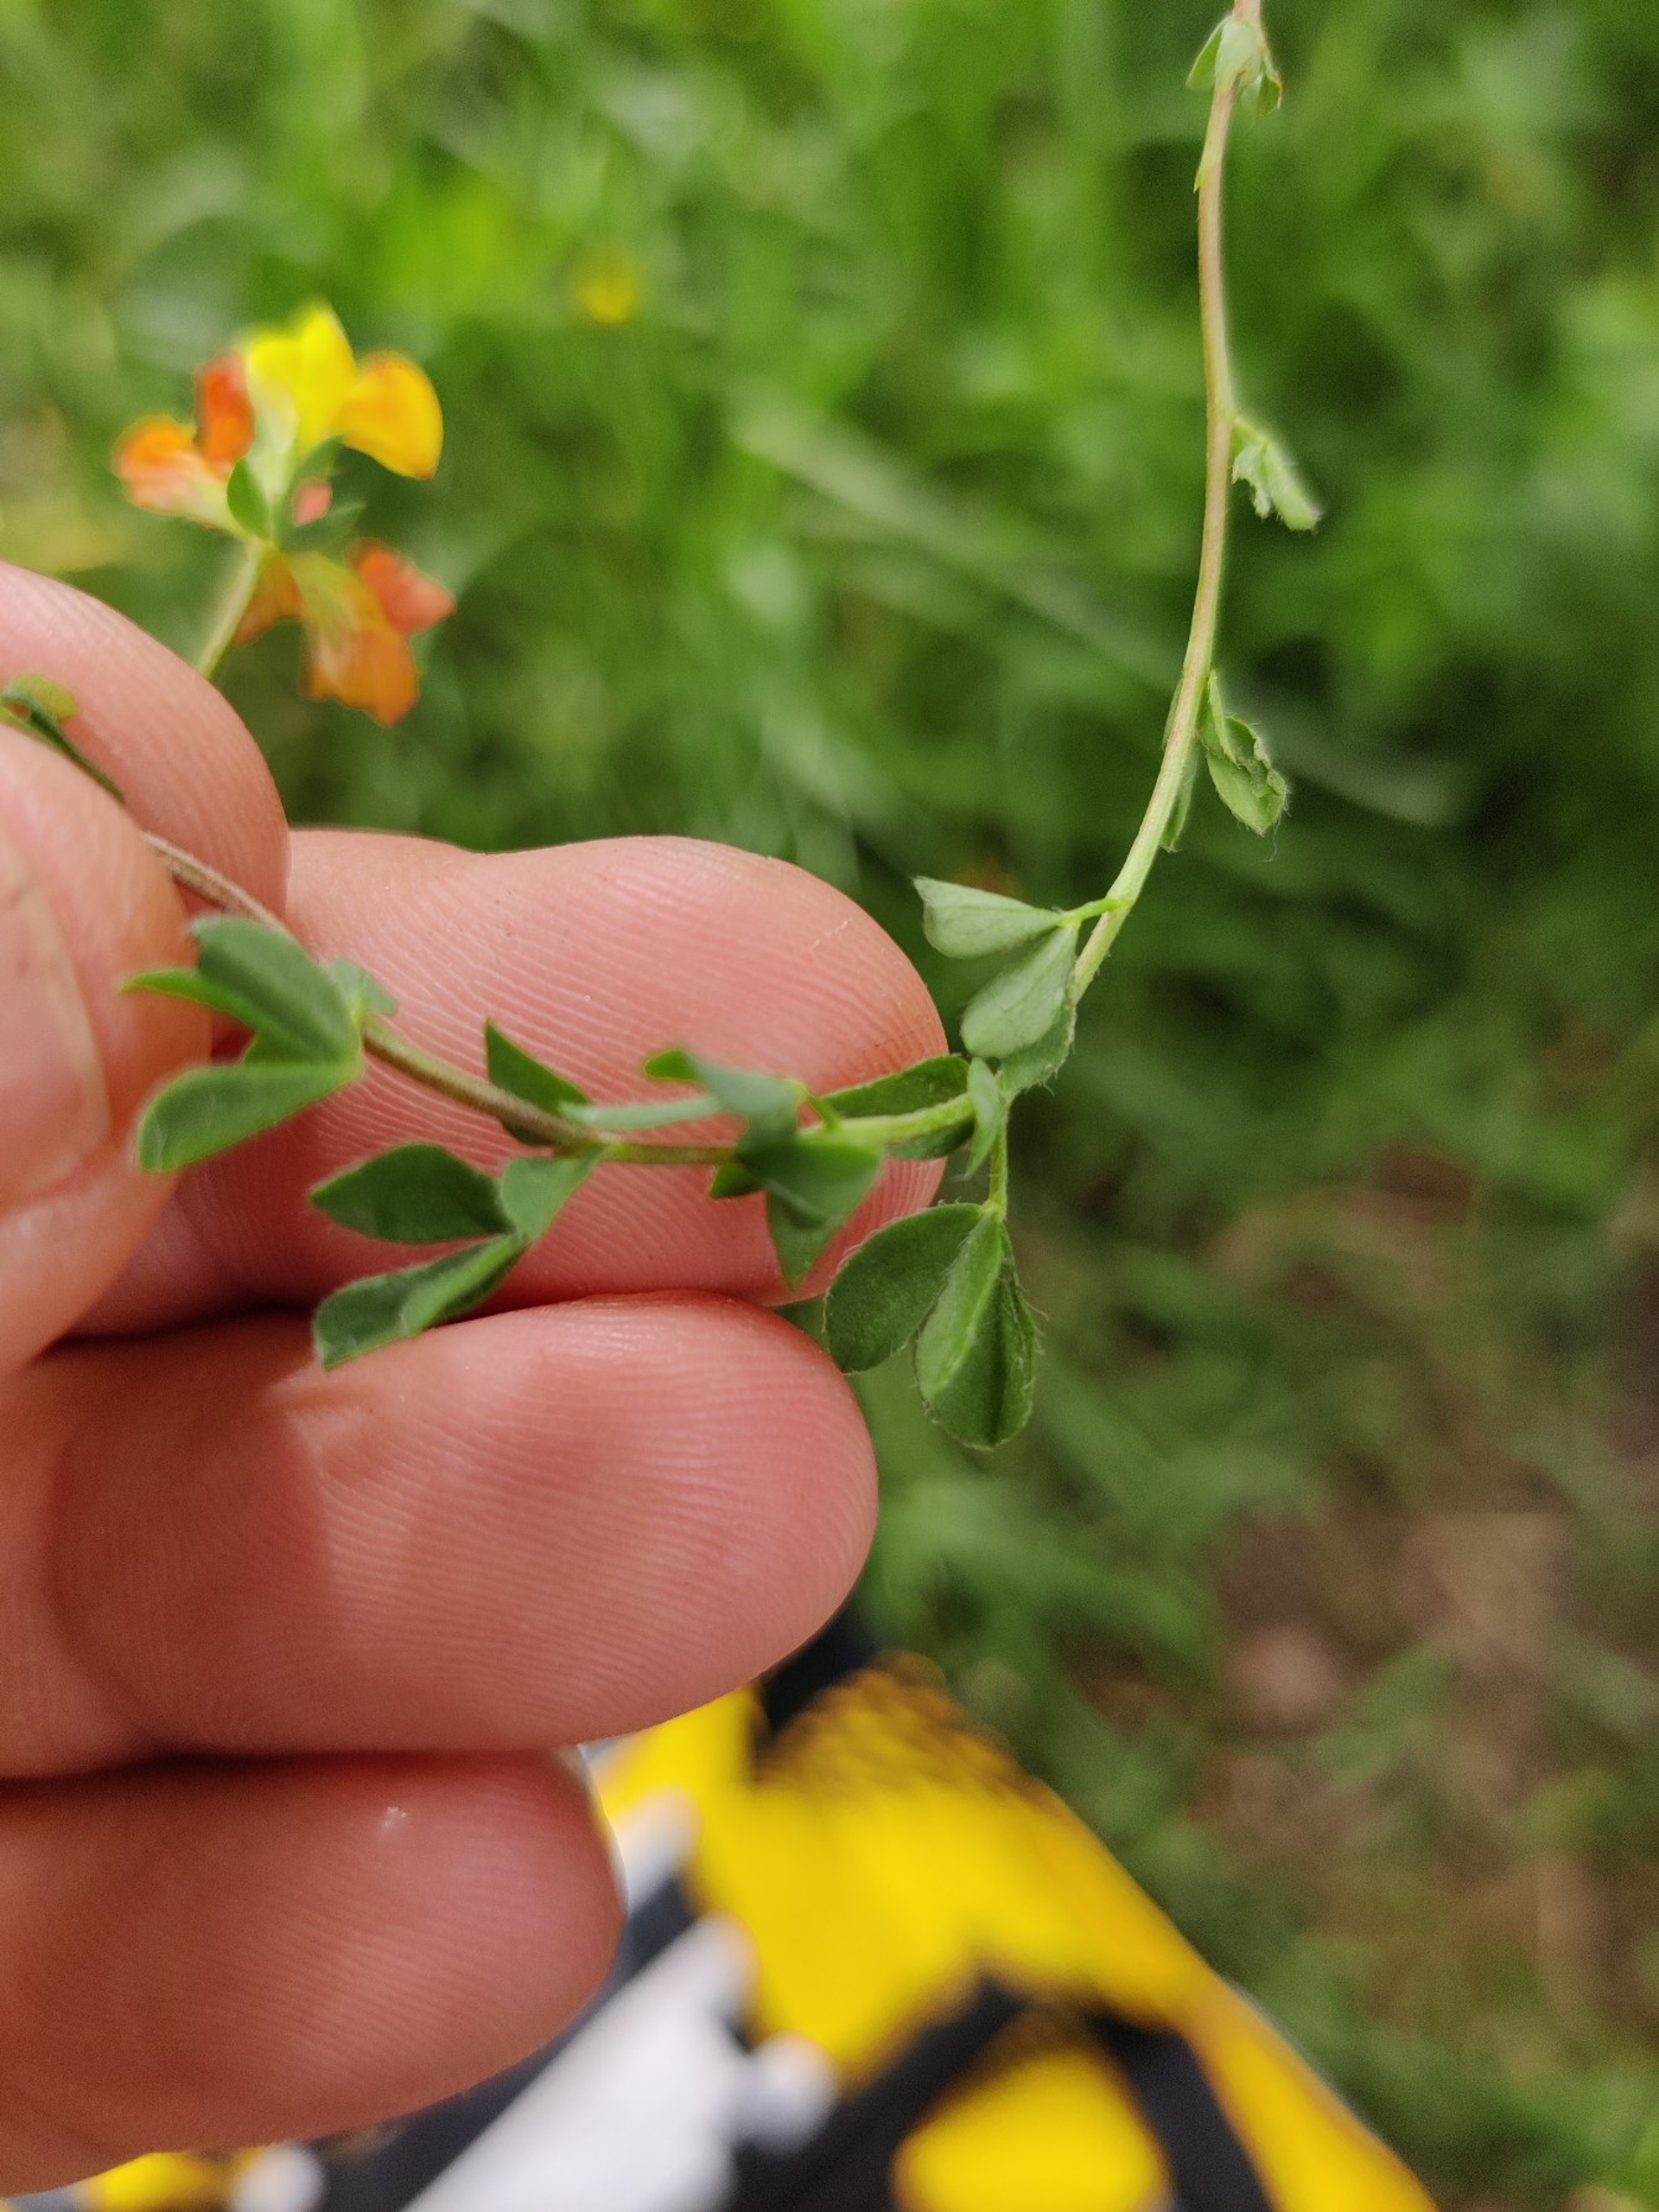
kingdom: Plantae
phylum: Tracheophyta
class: Magnoliopsida
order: Fabales
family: Fabaceae
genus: Lotus
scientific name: Lotus corniculatus
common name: Almindelig kællingetand
